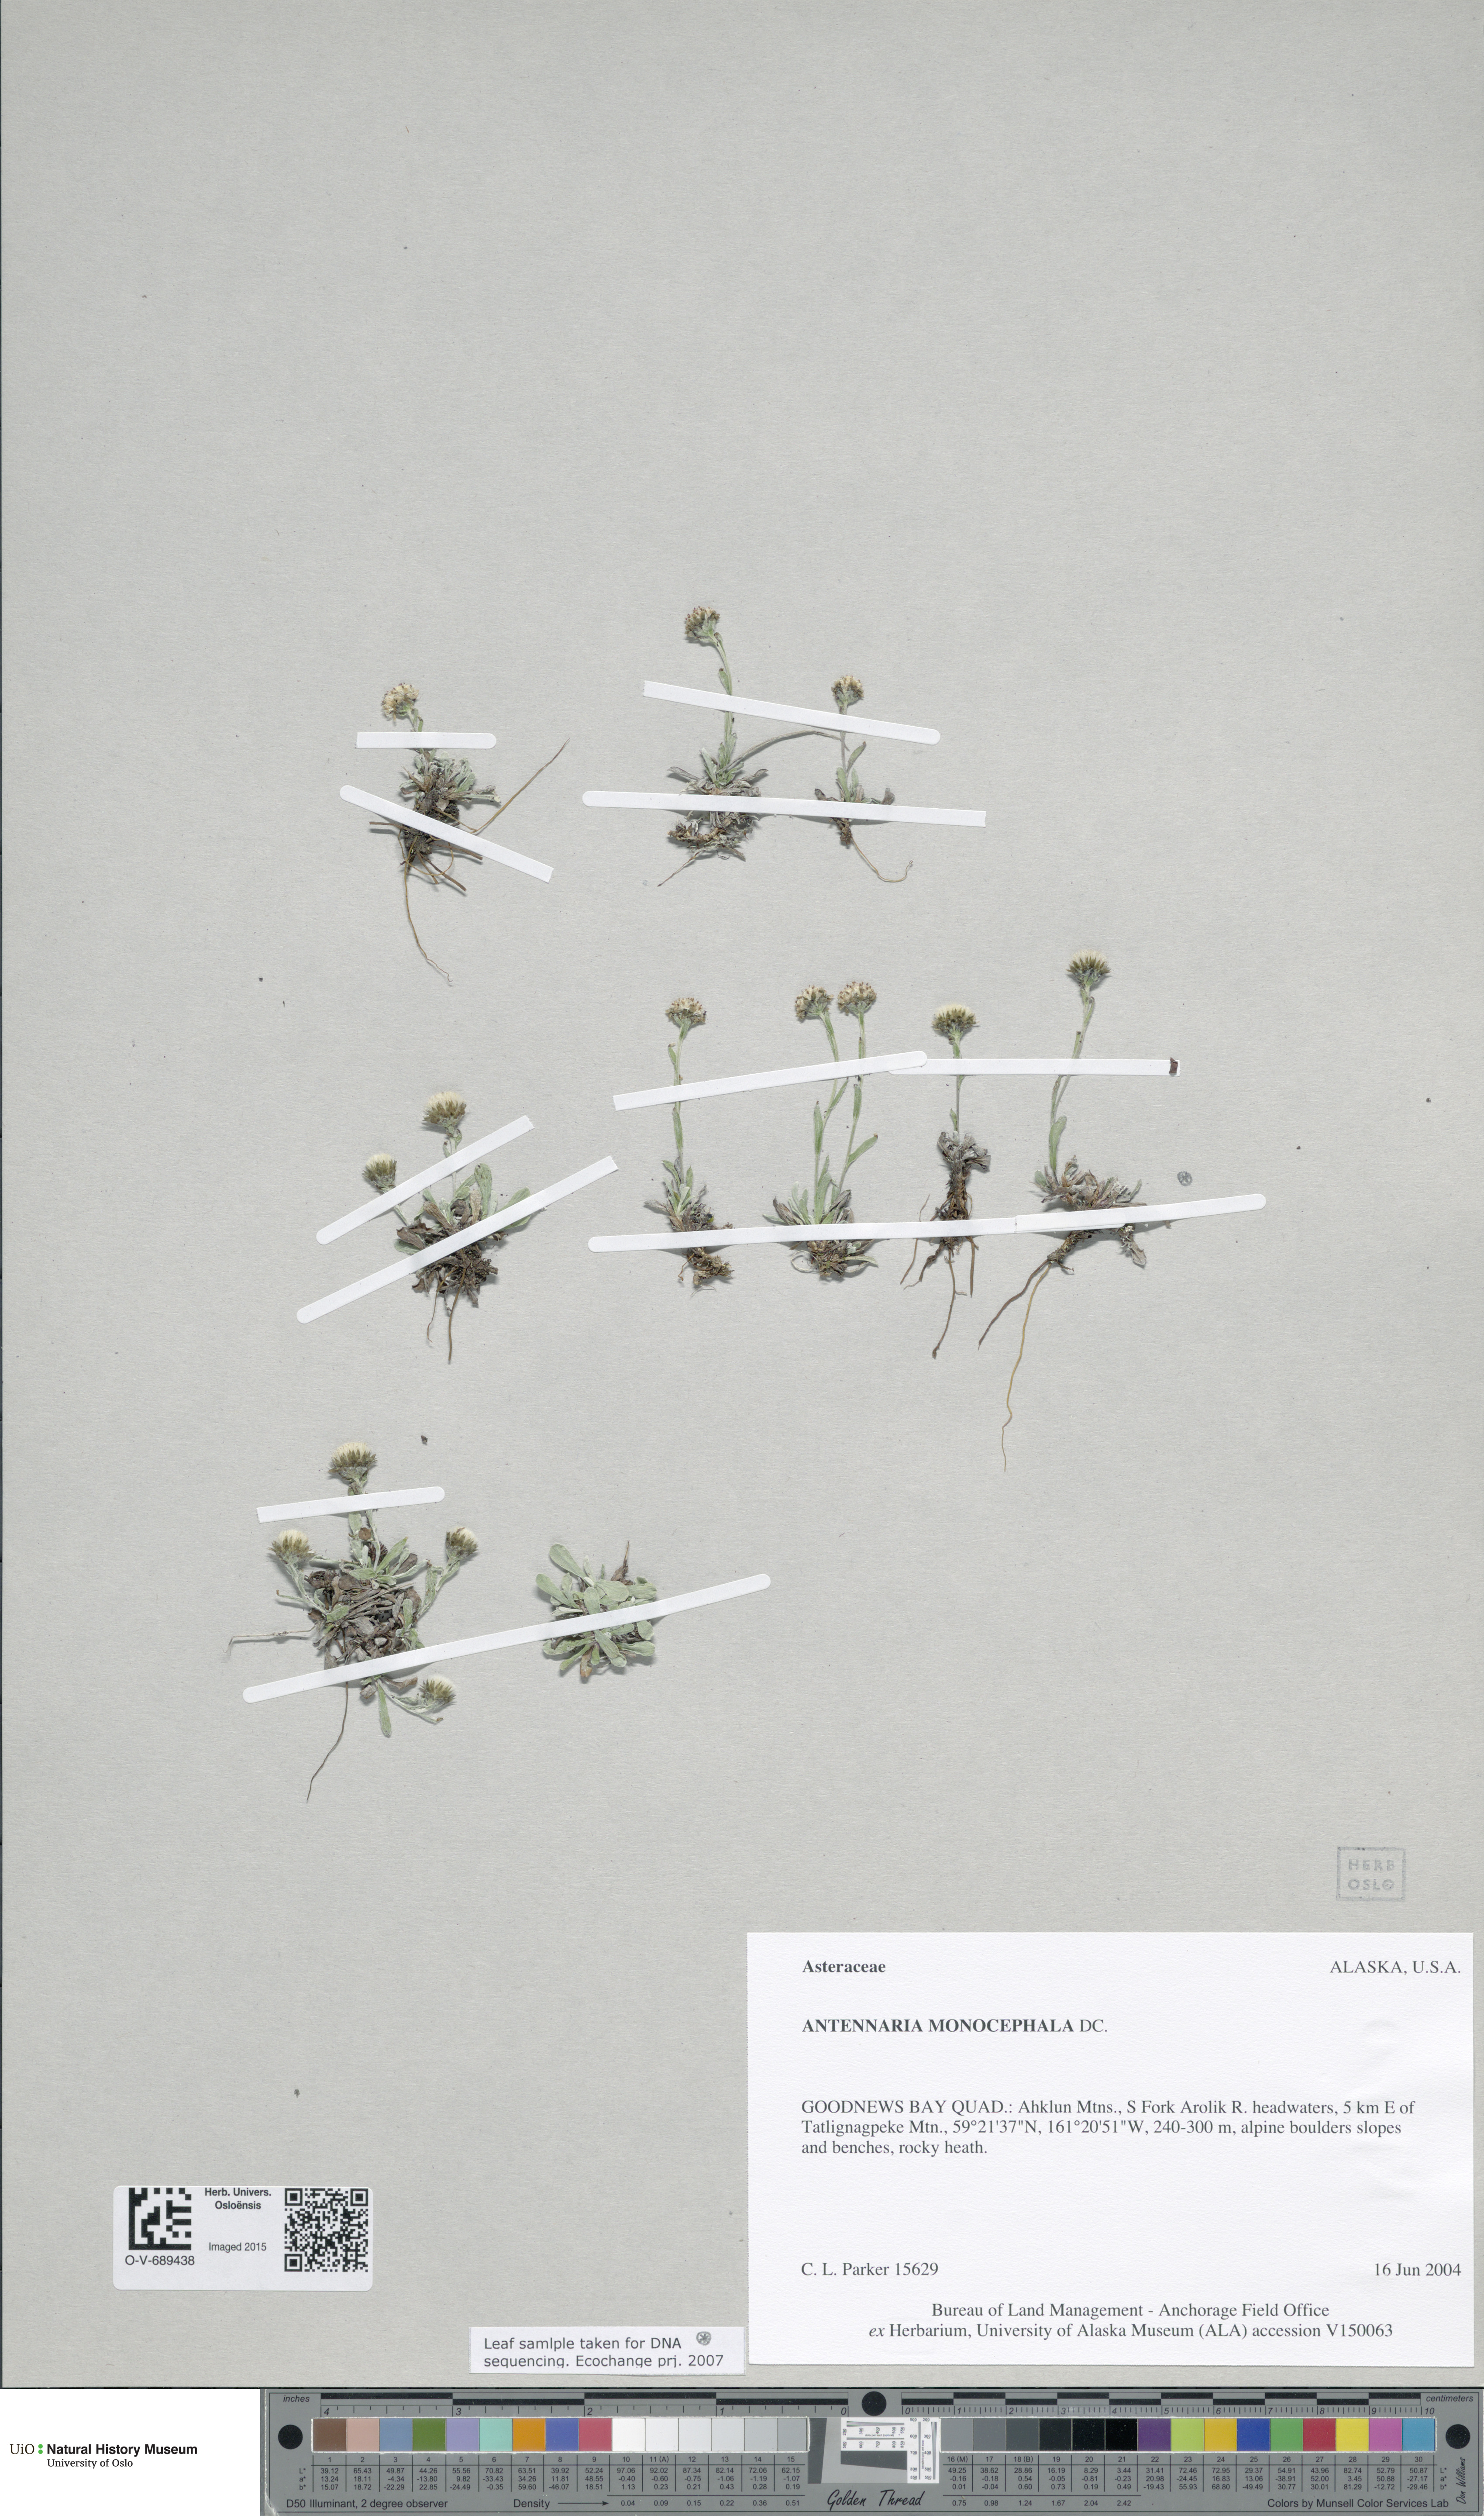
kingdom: Plantae
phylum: Tracheophyta
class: Magnoliopsida
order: Asterales
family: Asteraceae
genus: Antennaria
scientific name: Antennaria monocephala
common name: Pygmy pussytoes
